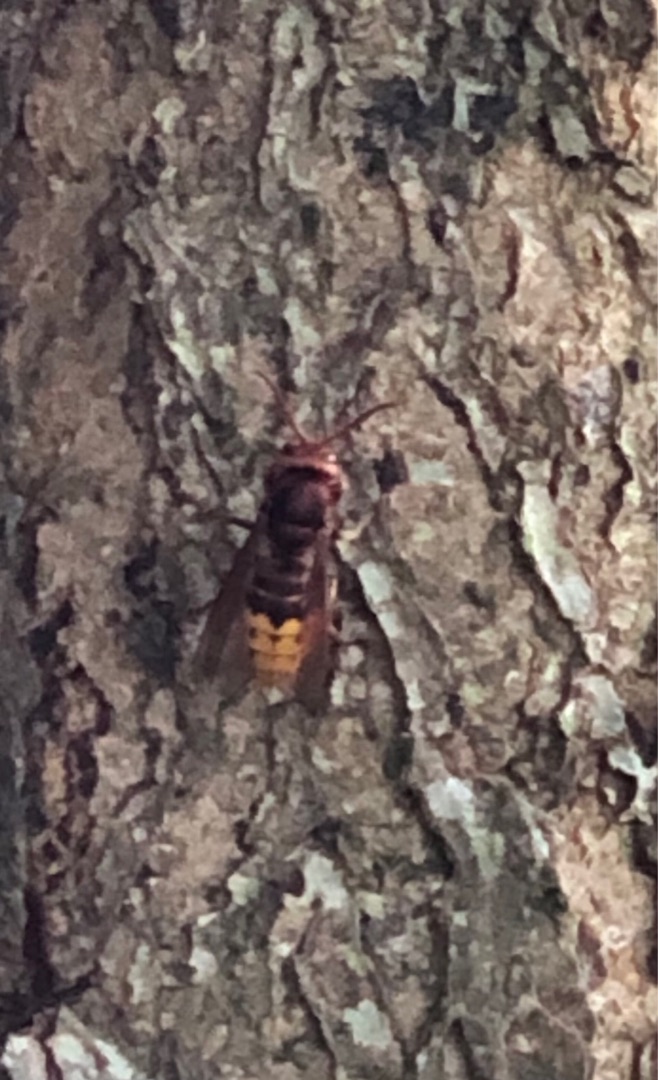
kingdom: Animalia
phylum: Arthropoda
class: Insecta
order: Hymenoptera
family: Vespidae
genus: Vespa
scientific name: Vespa crabro
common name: Stor gedehams
